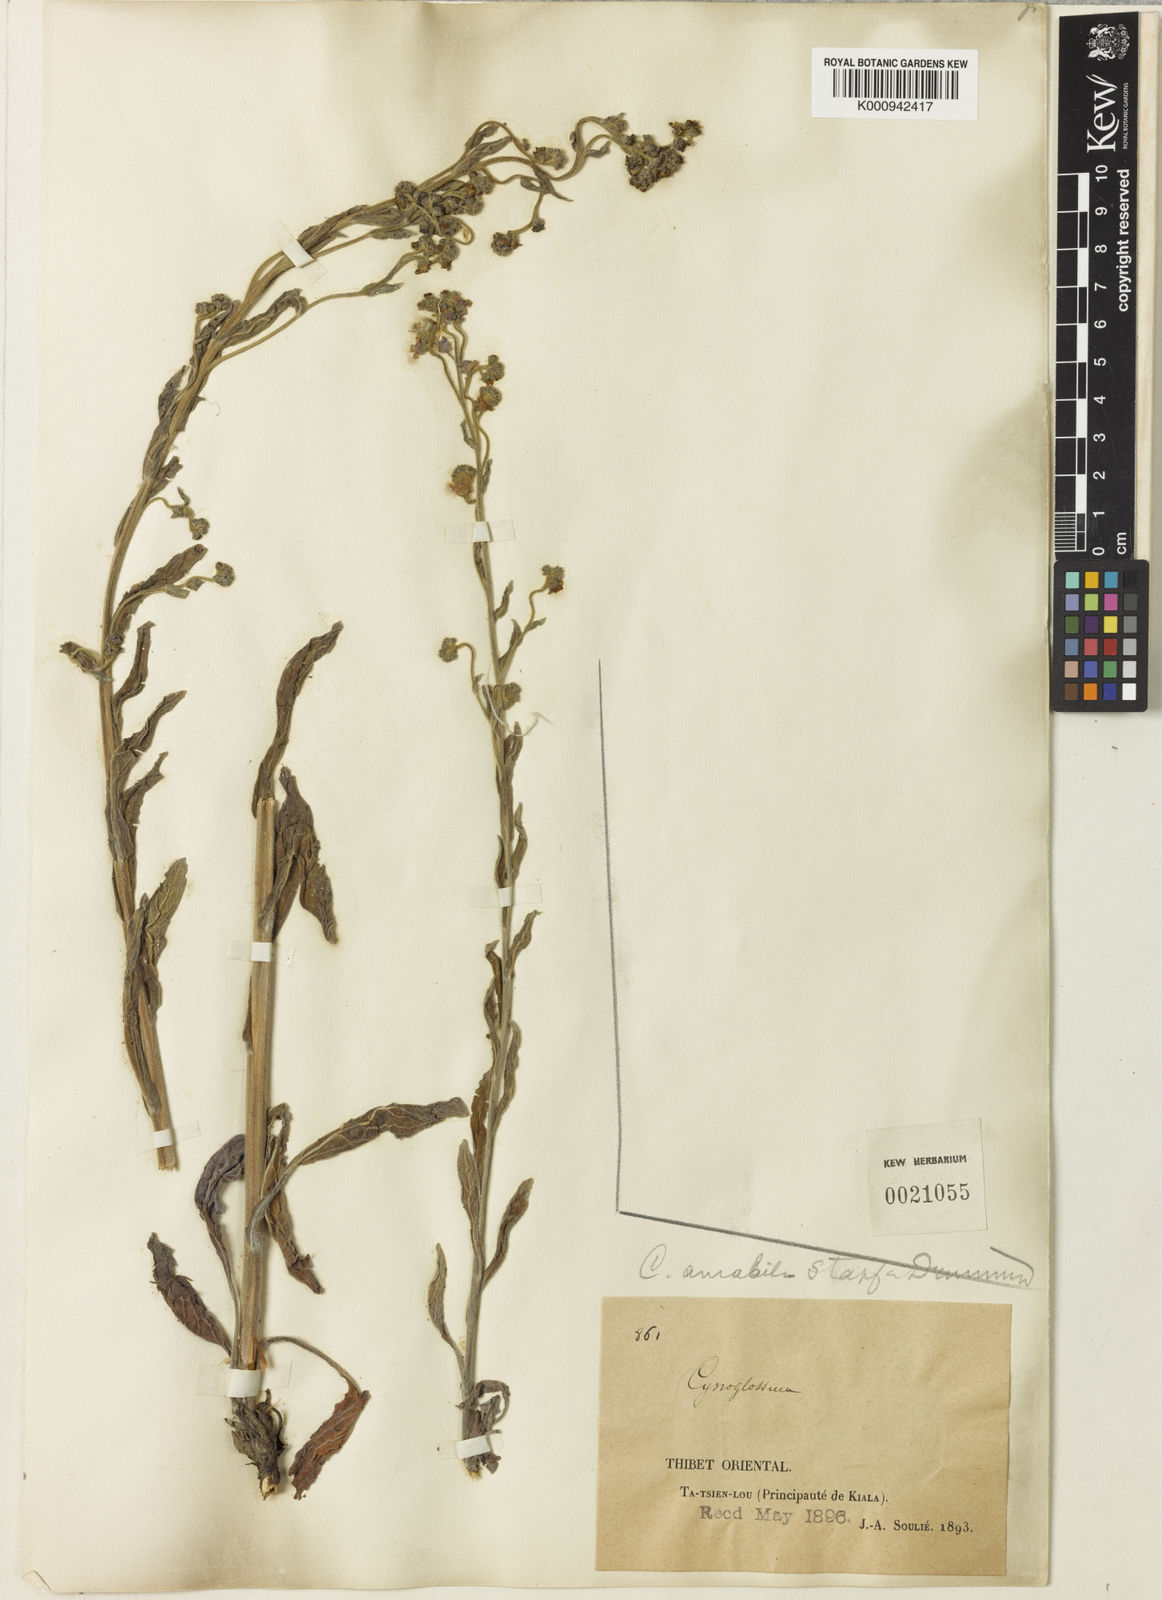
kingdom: Plantae
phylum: Tracheophyta
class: Magnoliopsida
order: Boraginales
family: Boraginaceae
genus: Cynoglossum
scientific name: Cynoglossum amabile
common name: Chinese hound's tongue
